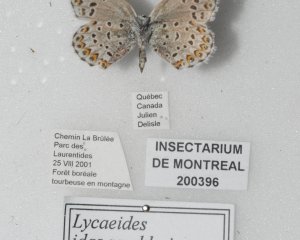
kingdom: Animalia
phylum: Arthropoda
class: Insecta
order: Lepidoptera
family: Lycaenidae
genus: Incisalia
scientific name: Incisalia eryphon
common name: Western Pine Elfin
